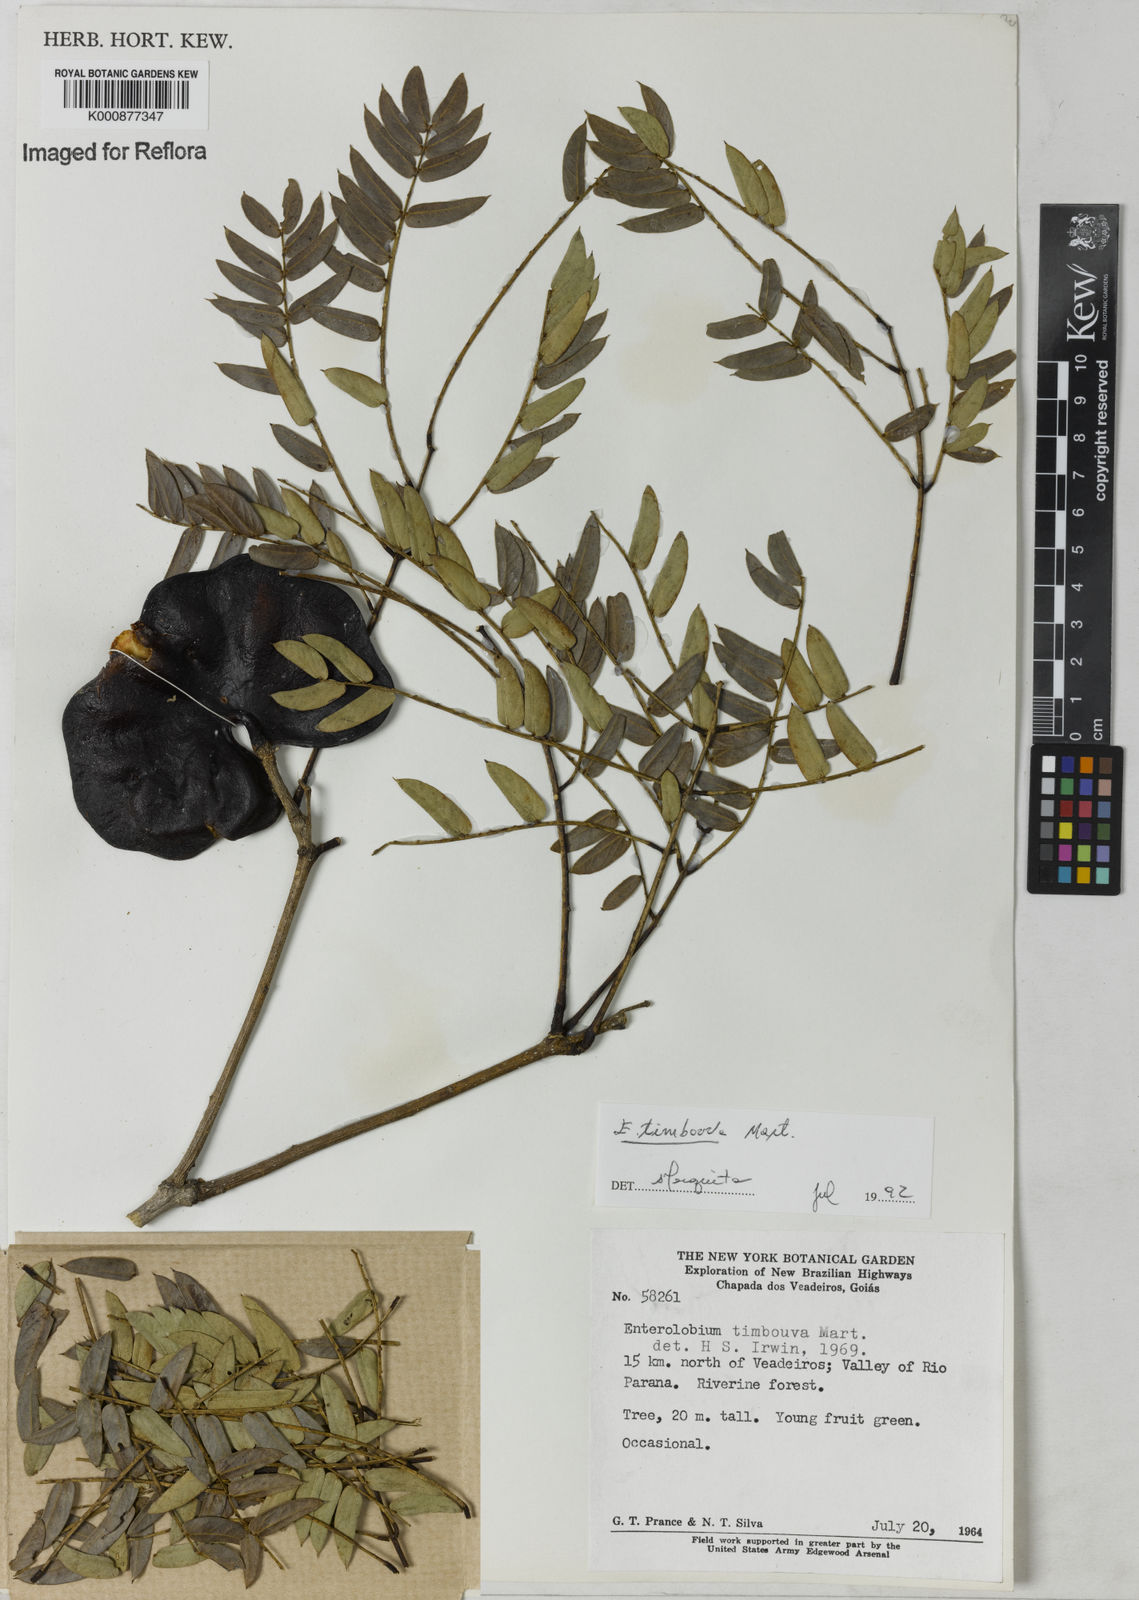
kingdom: Plantae
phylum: Tracheophyta
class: Magnoliopsida
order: Fabales
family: Fabaceae
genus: Enterolobium
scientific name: Enterolobium timbouva
